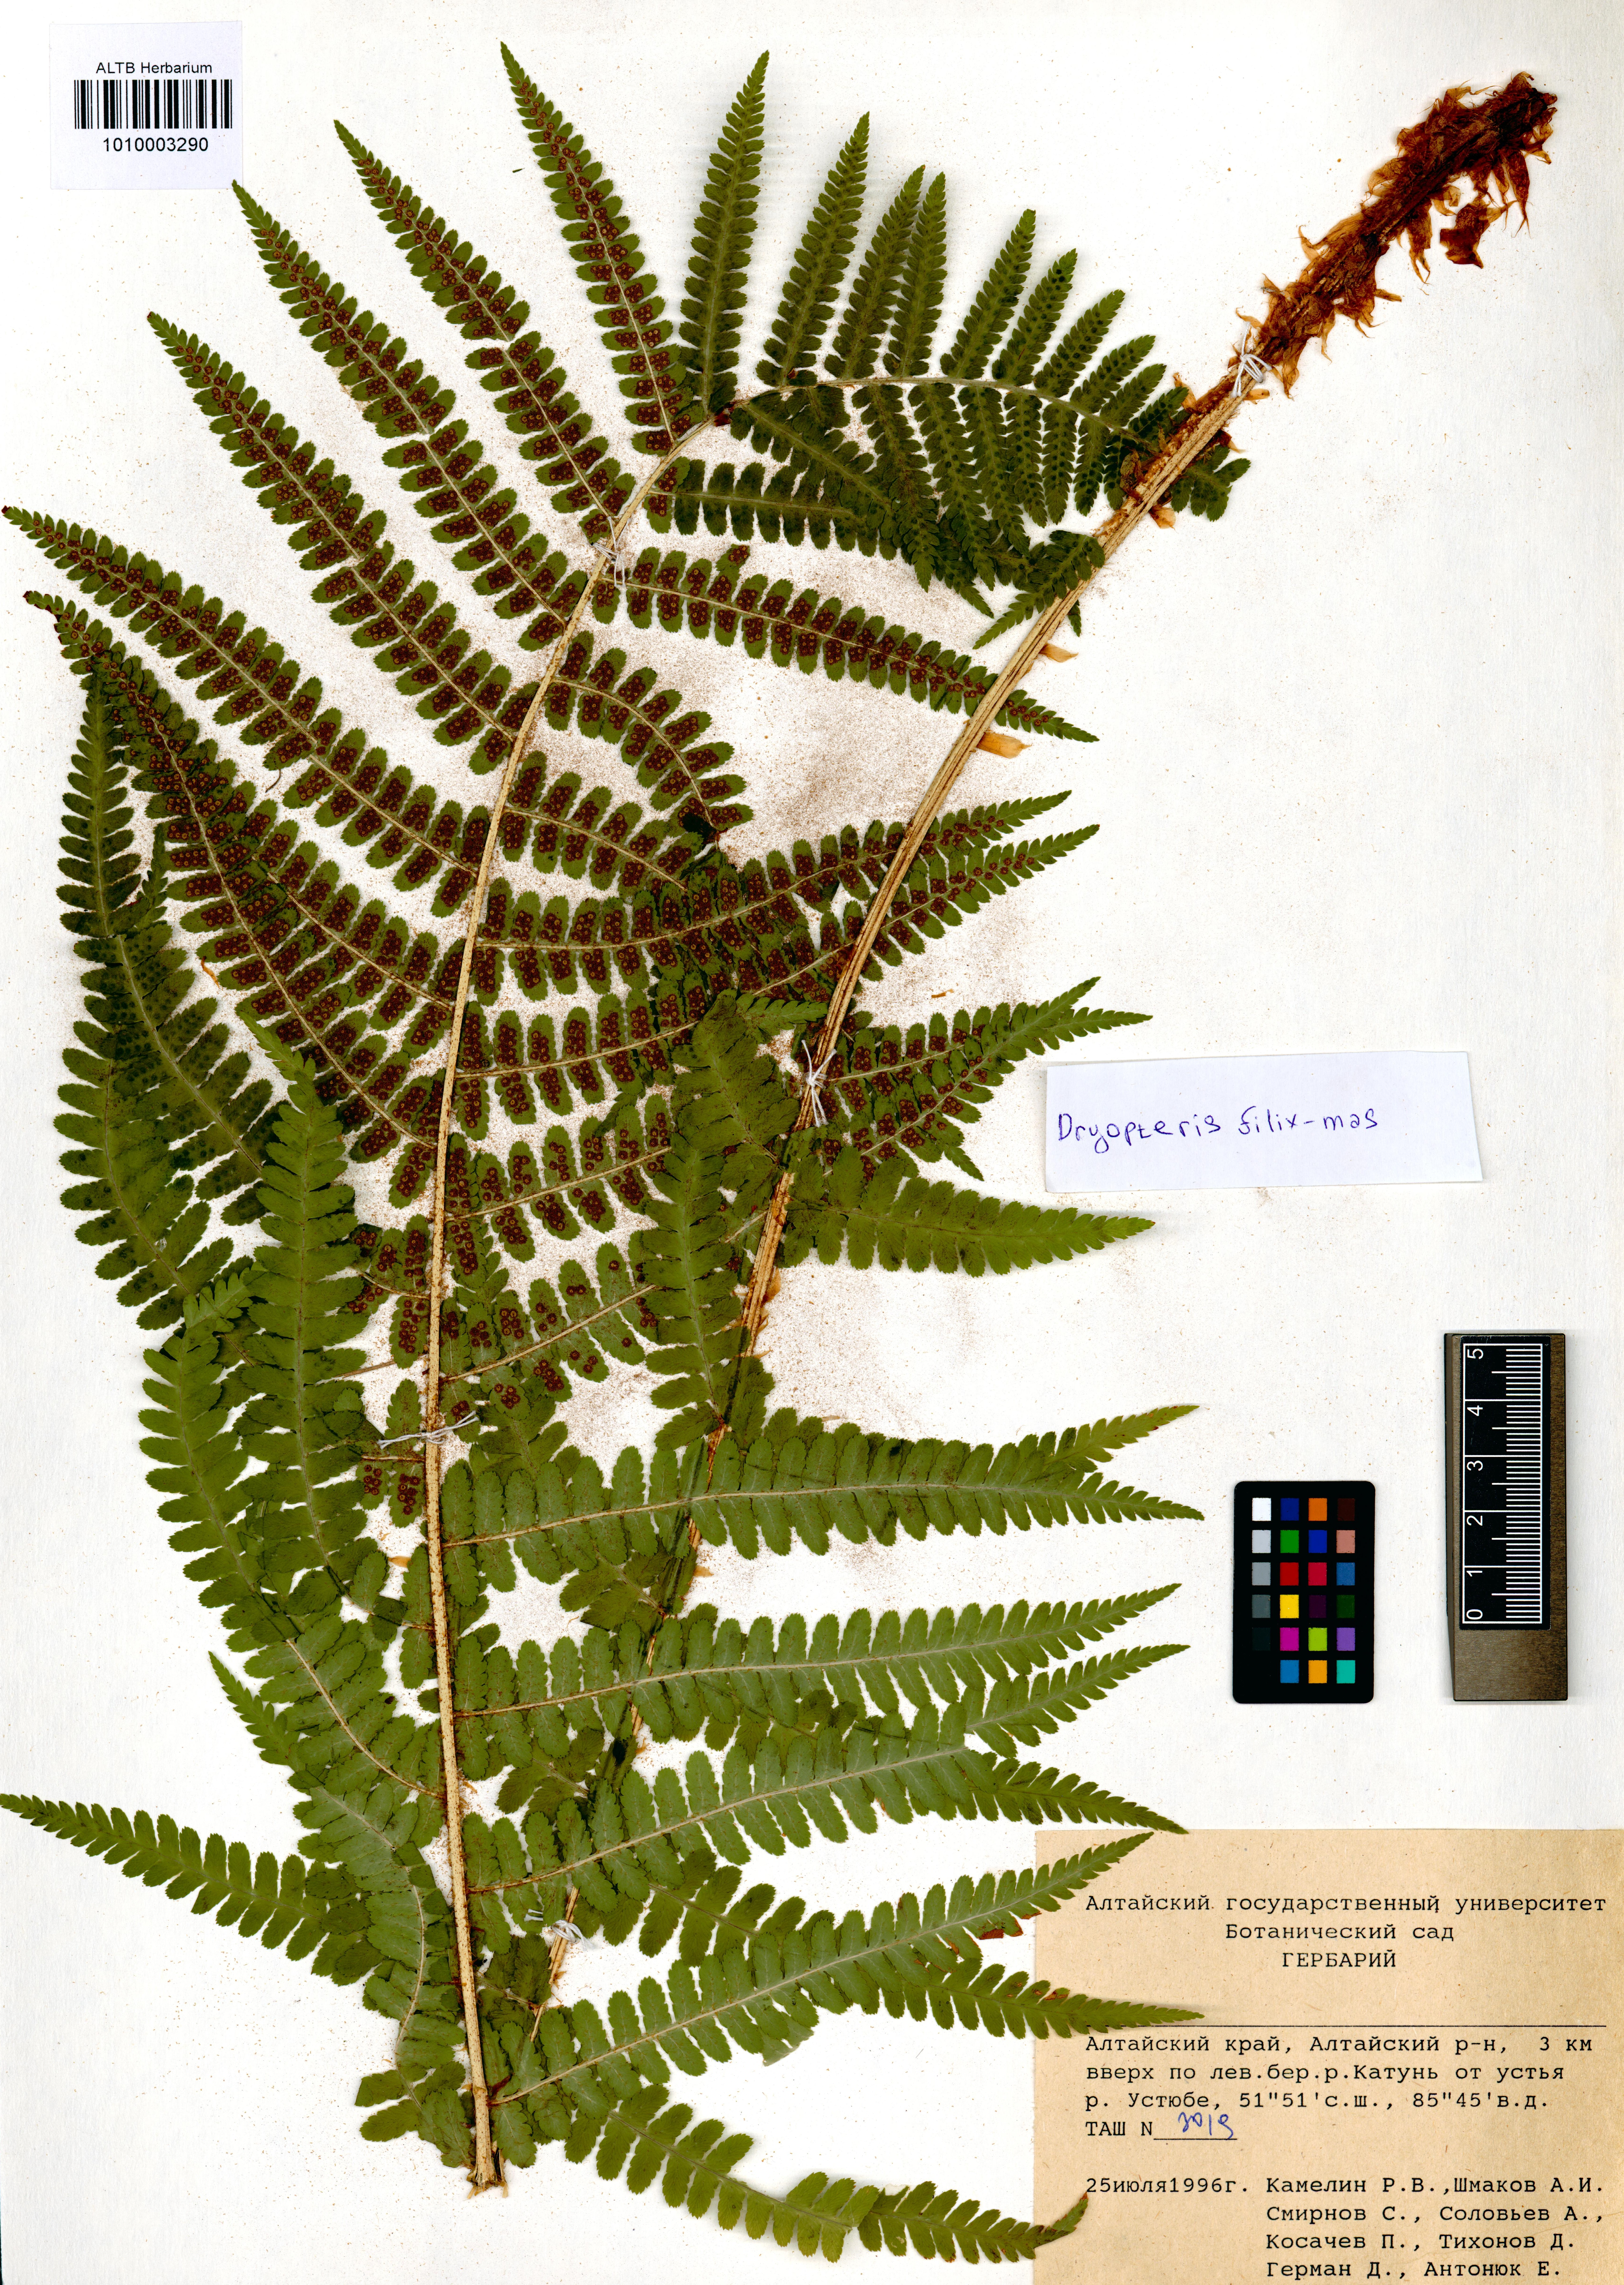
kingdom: Plantae
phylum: Tracheophyta
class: Polypodiopsida
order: Polypodiales
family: Dryopteridaceae
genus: Dryopteris
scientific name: Dryopteris filix-mas
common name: Male fern
